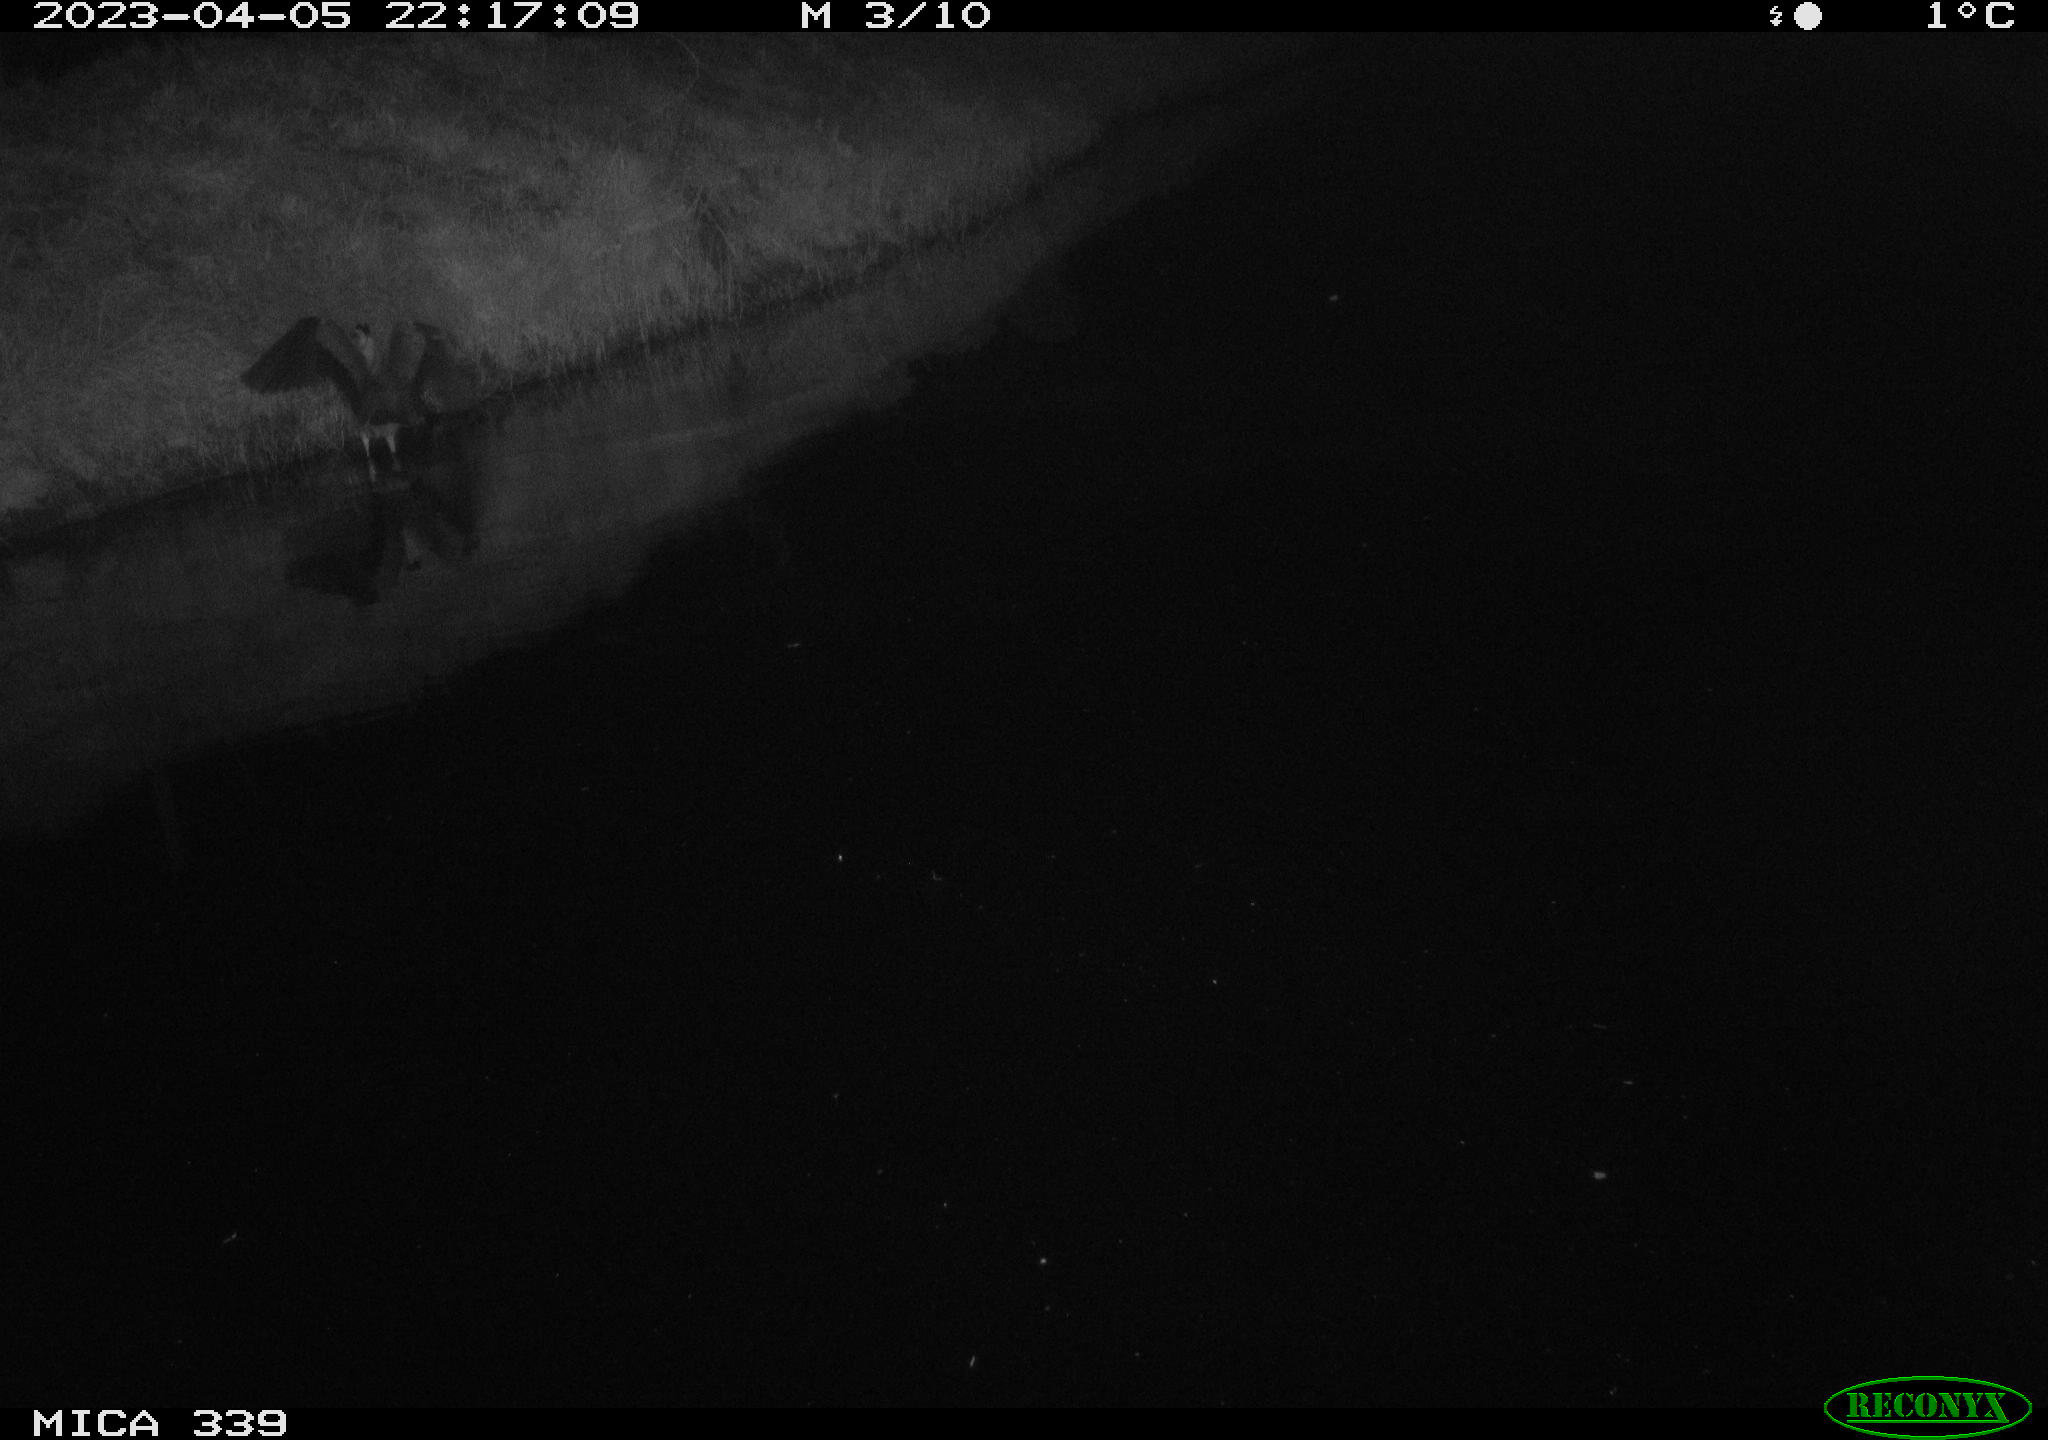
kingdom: Animalia
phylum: Chordata
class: Aves
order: Pelecaniformes
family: Ardeidae
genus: Ardea
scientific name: Ardea cinerea
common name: Grey heron
